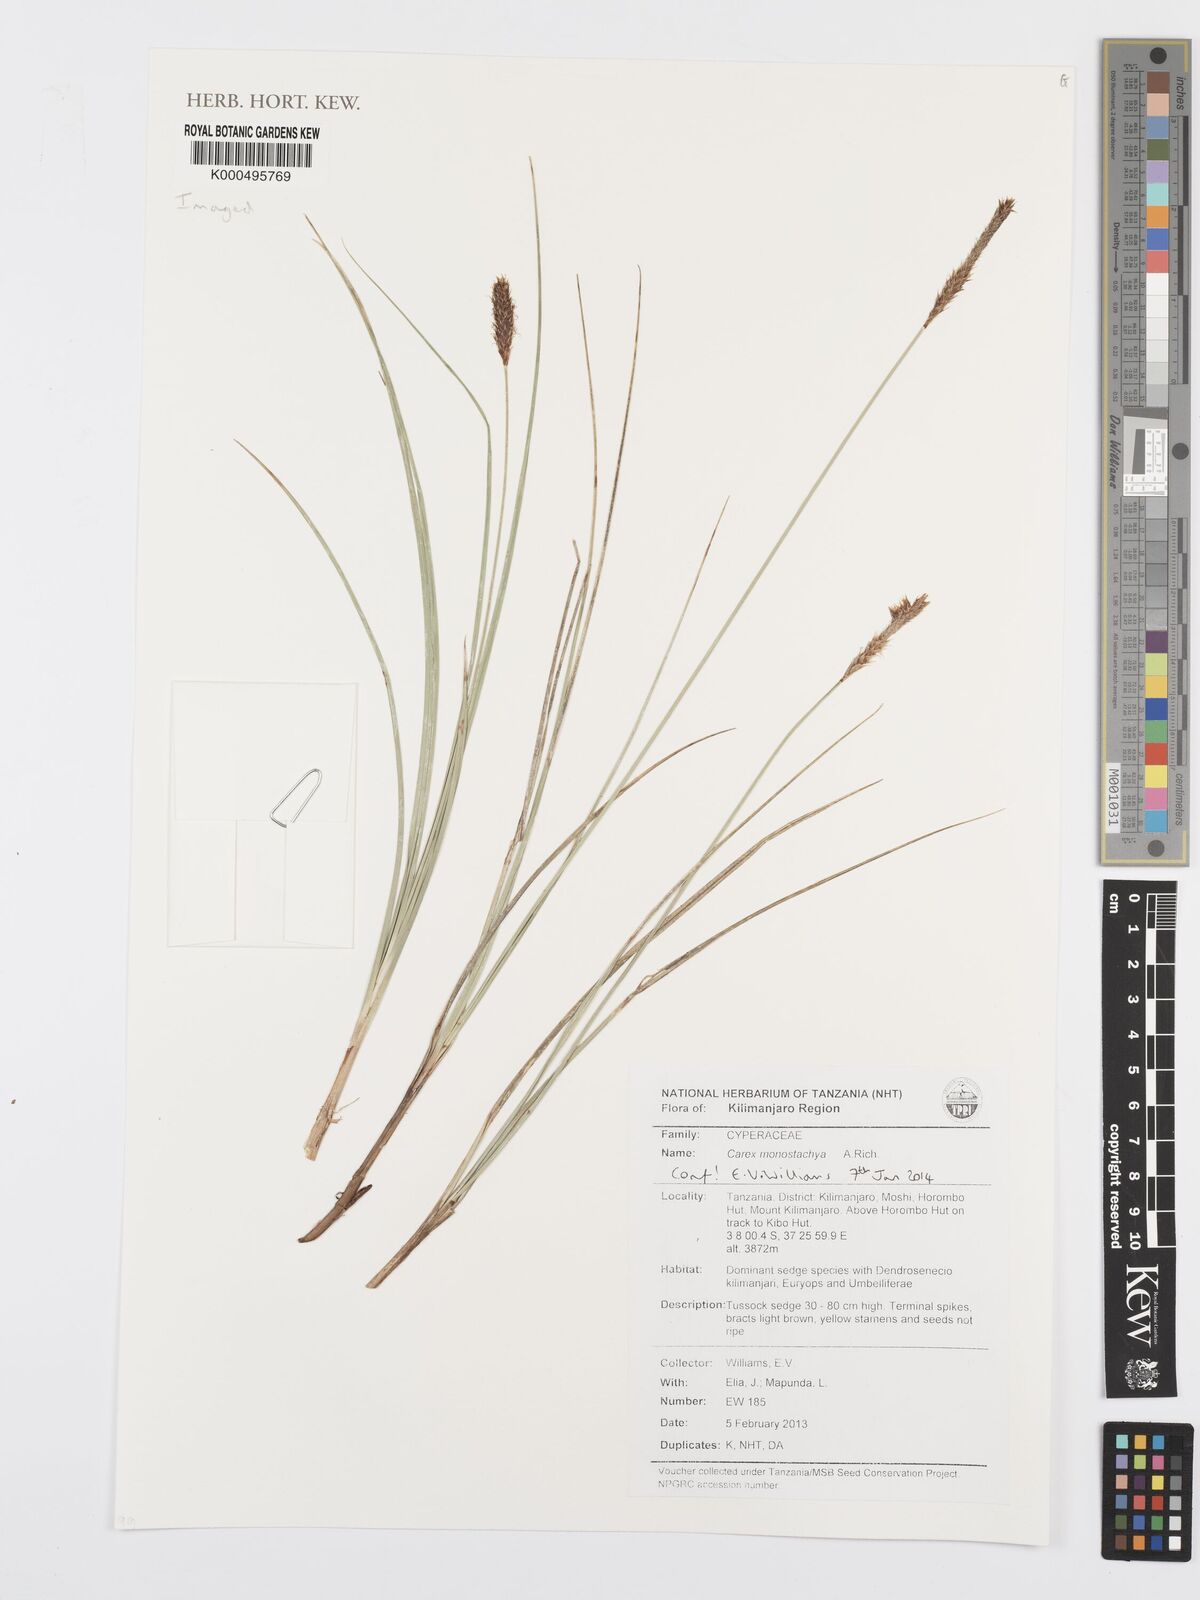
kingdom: Plantae
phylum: Tracheophyta
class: Liliopsida
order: Poales
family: Cyperaceae
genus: Carex
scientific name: Carex monostachya
